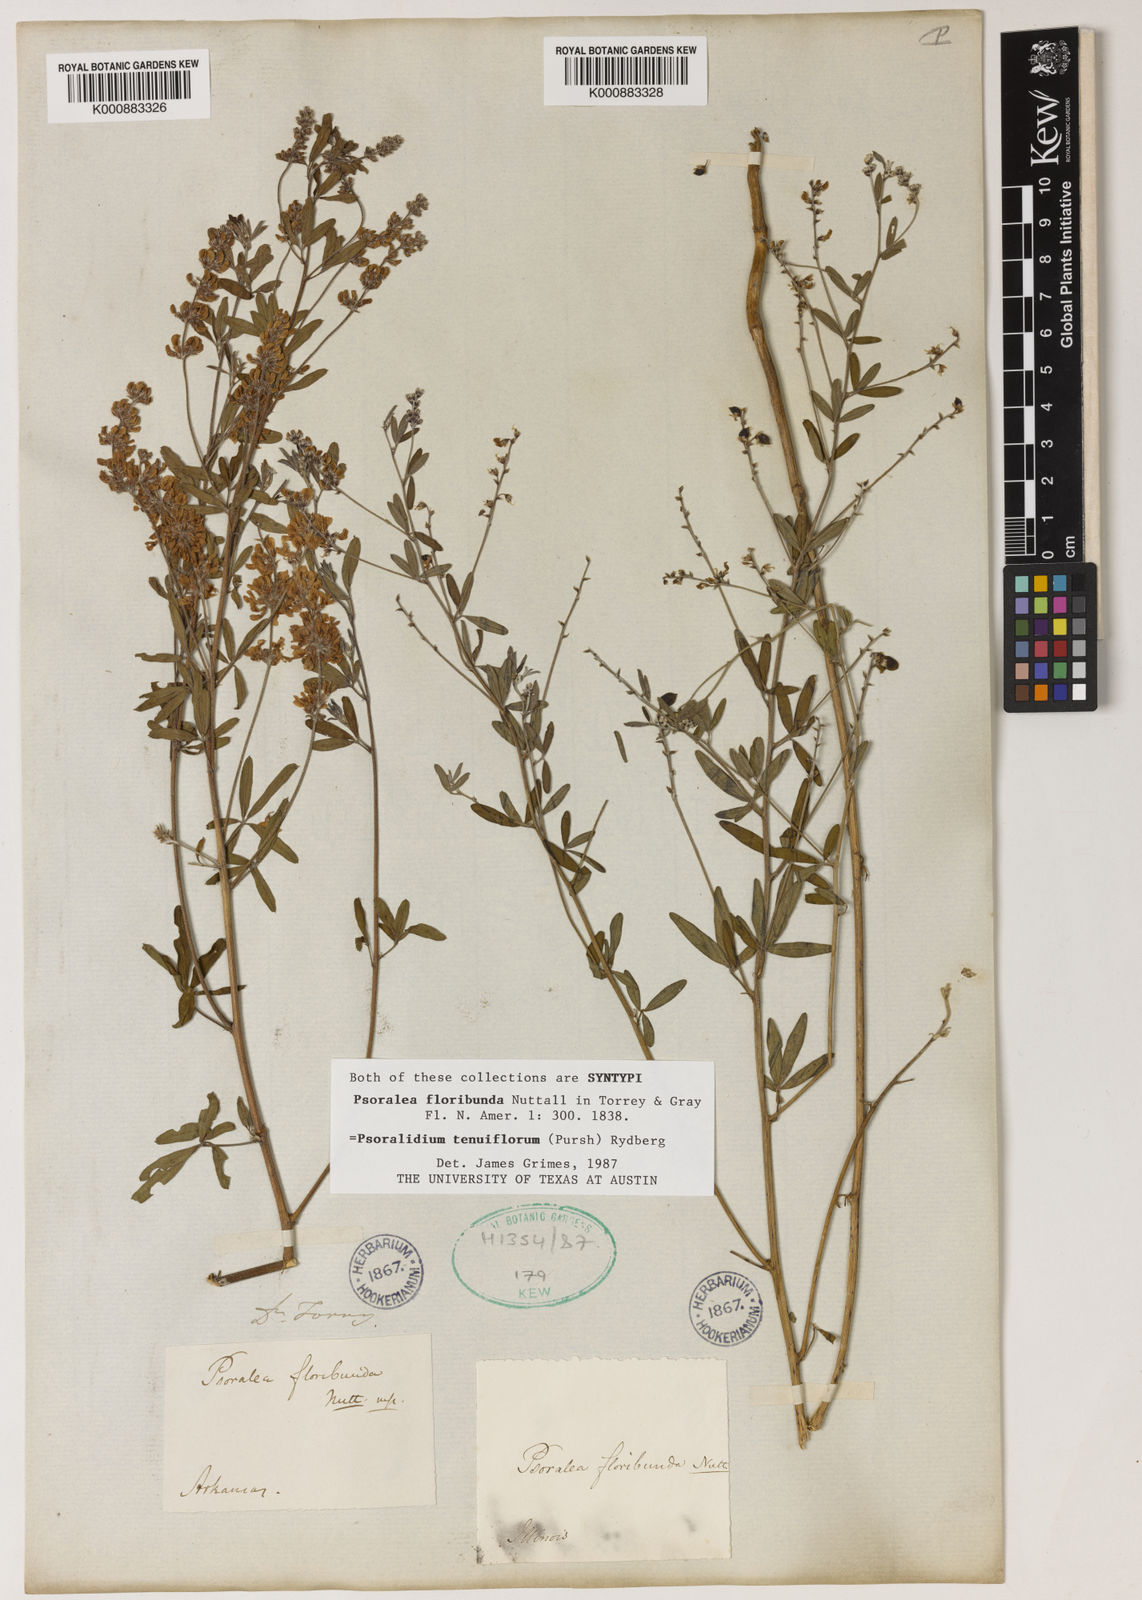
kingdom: Plantae
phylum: Tracheophyta
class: Magnoliopsida
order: Fabales
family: Fabaceae
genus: Pediomelum
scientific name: Pediomelum tenuiflorum
